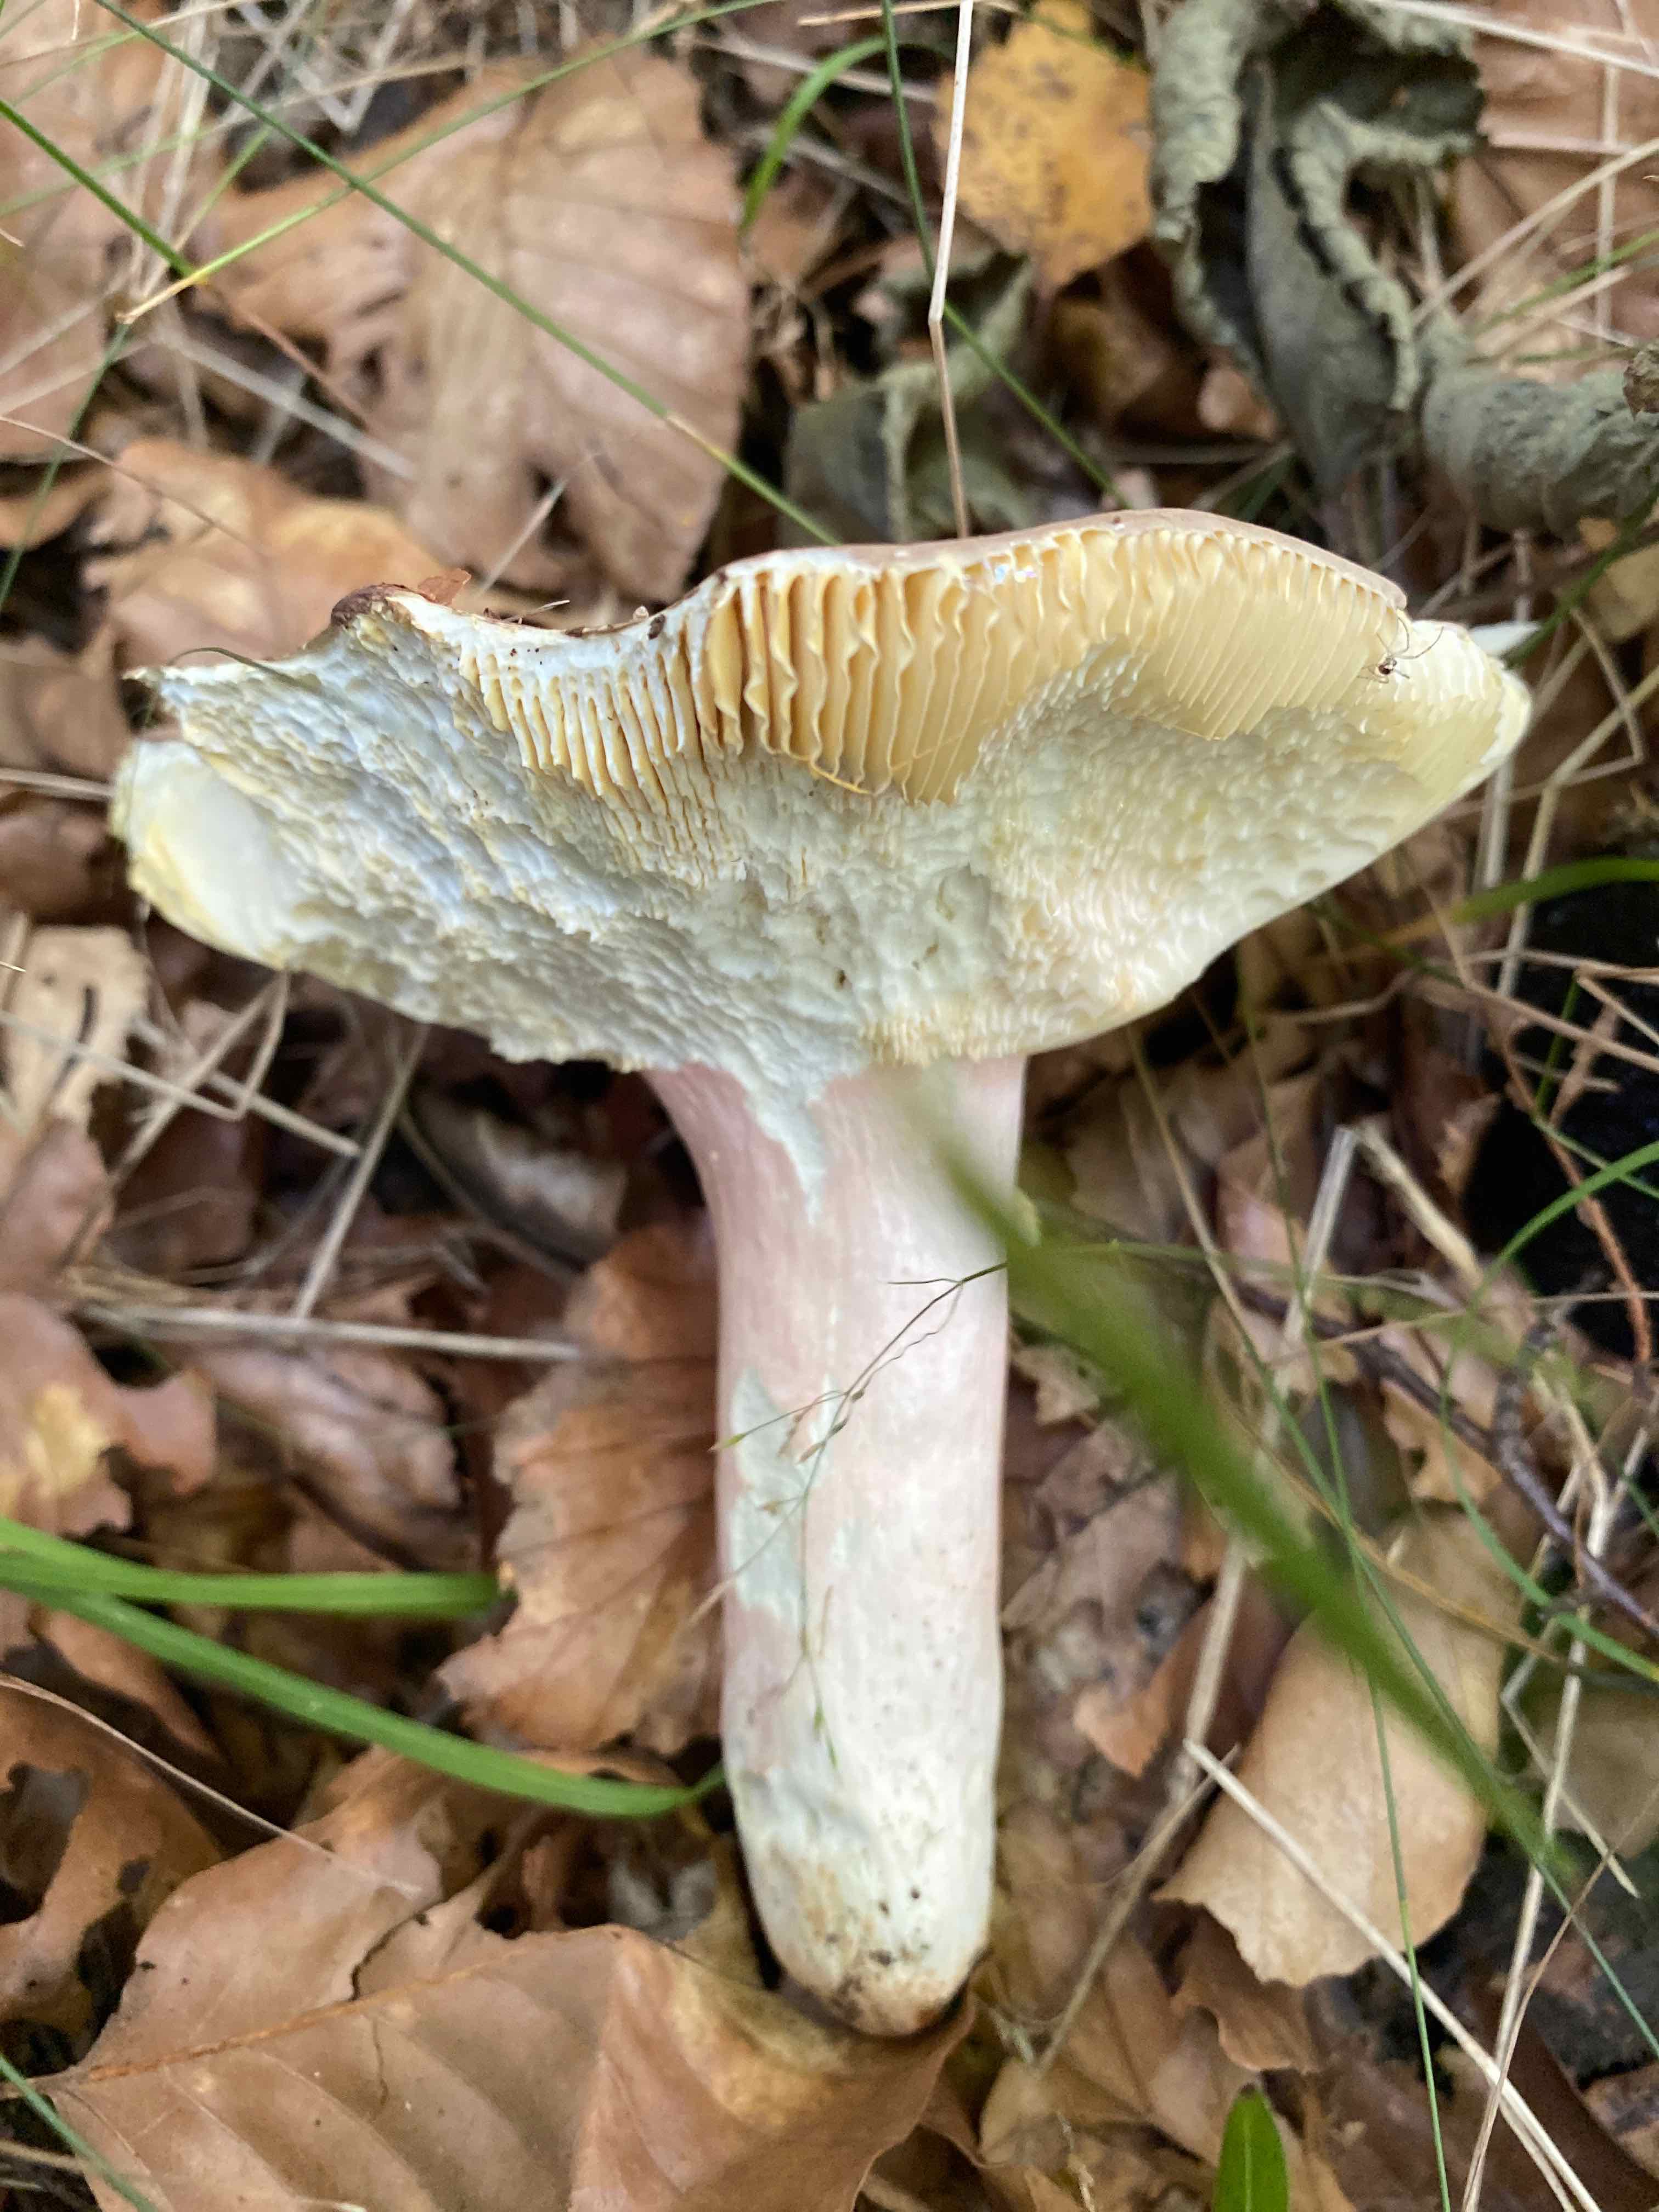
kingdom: Fungi
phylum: Basidiomycota
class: Agaricomycetes
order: Russulales
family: Russulaceae
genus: Russula
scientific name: Russula olivacea
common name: stor skørhat
